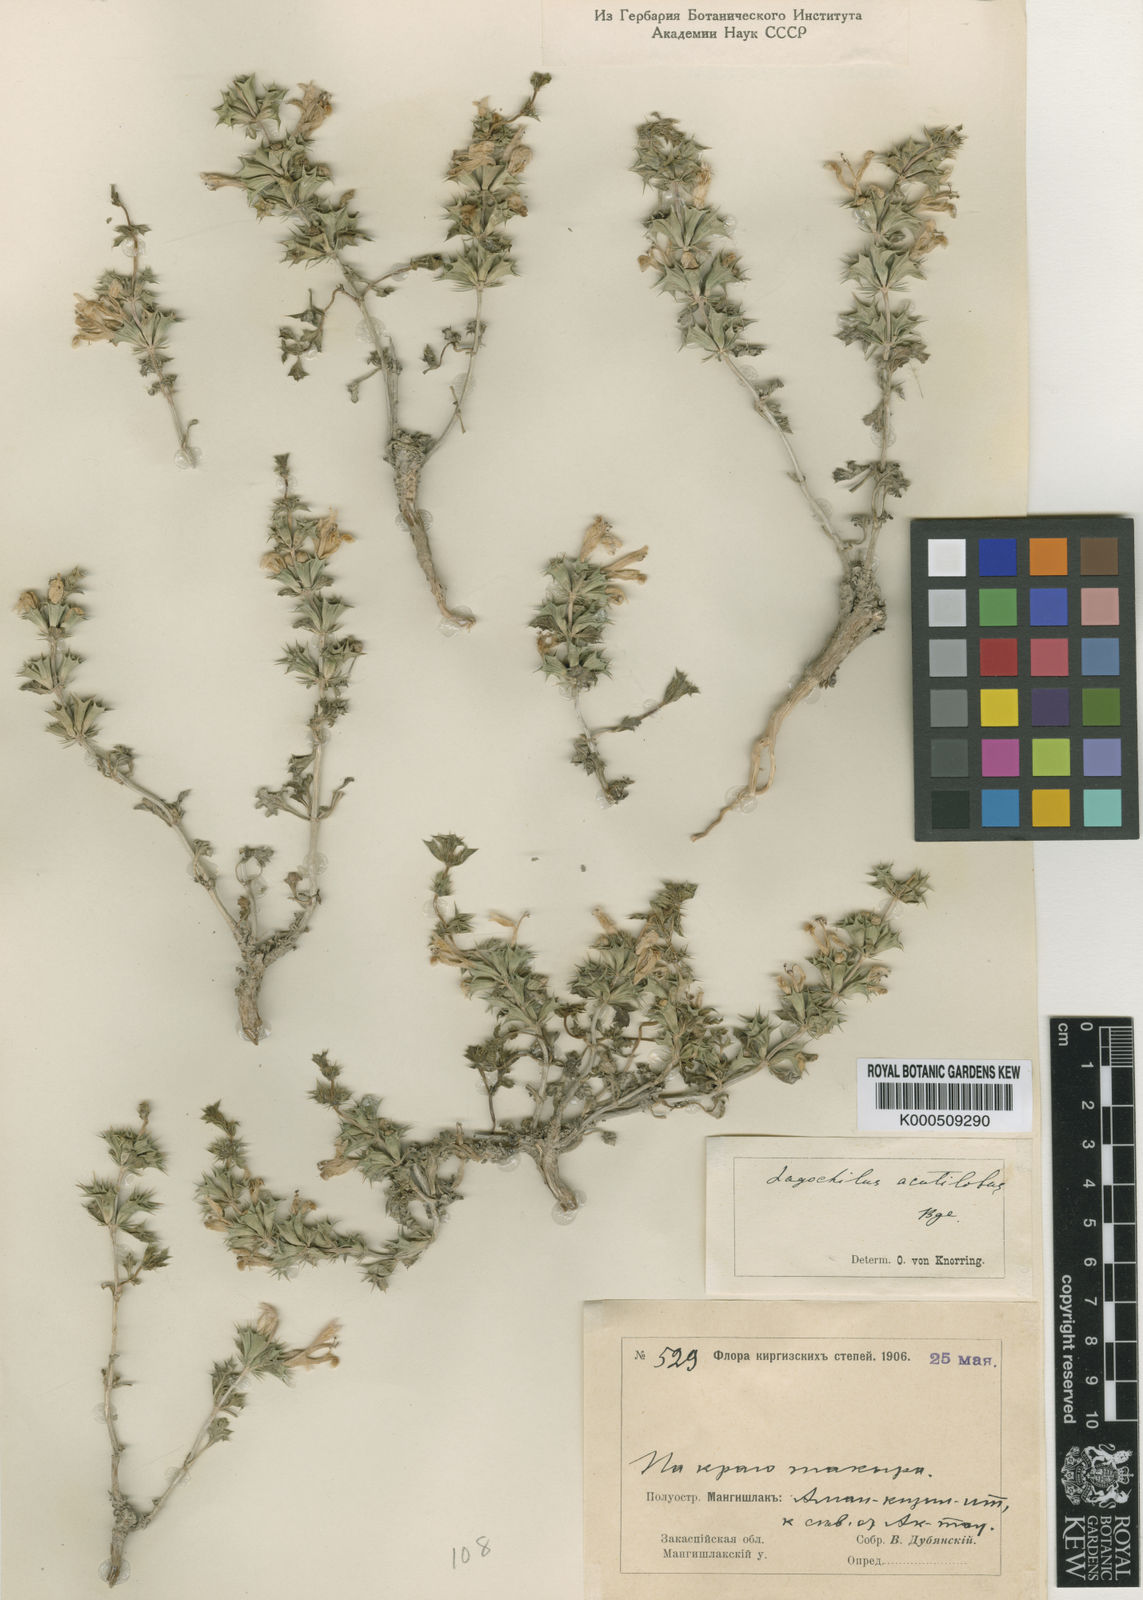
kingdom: Plantae
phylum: Tracheophyta
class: Magnoliopsida
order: Lamiales
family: Lamiaceae
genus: Lagochilus
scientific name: Lagochilus acutilobus
